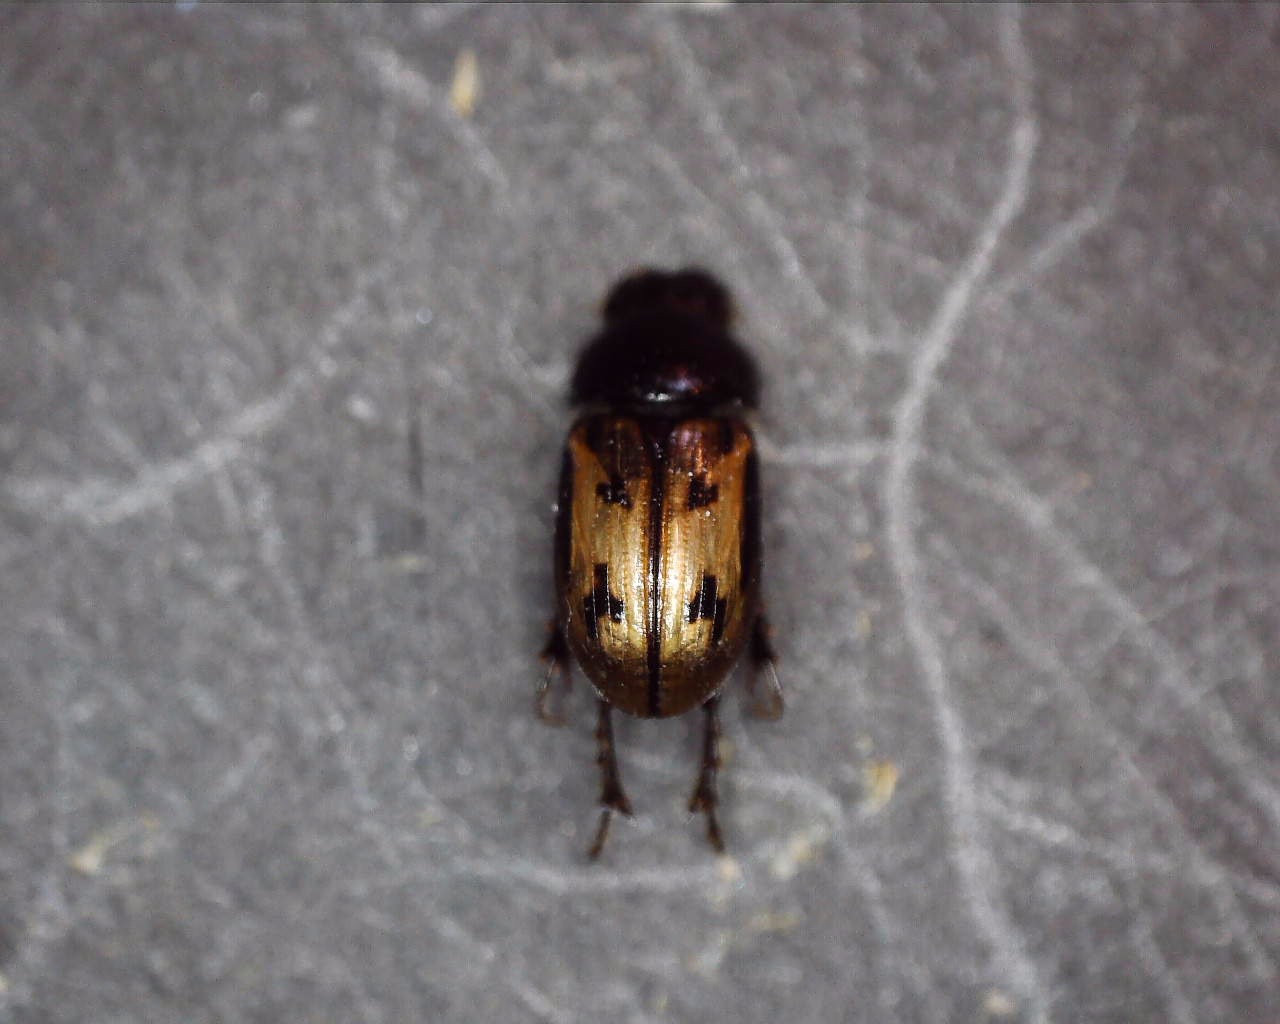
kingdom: Animalia
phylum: Arthropoda
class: Insecta
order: Coleoptera
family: Scarabaeidae
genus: Chilothorax
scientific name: Chilothorax distinctus
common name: Tidlig møgbille
